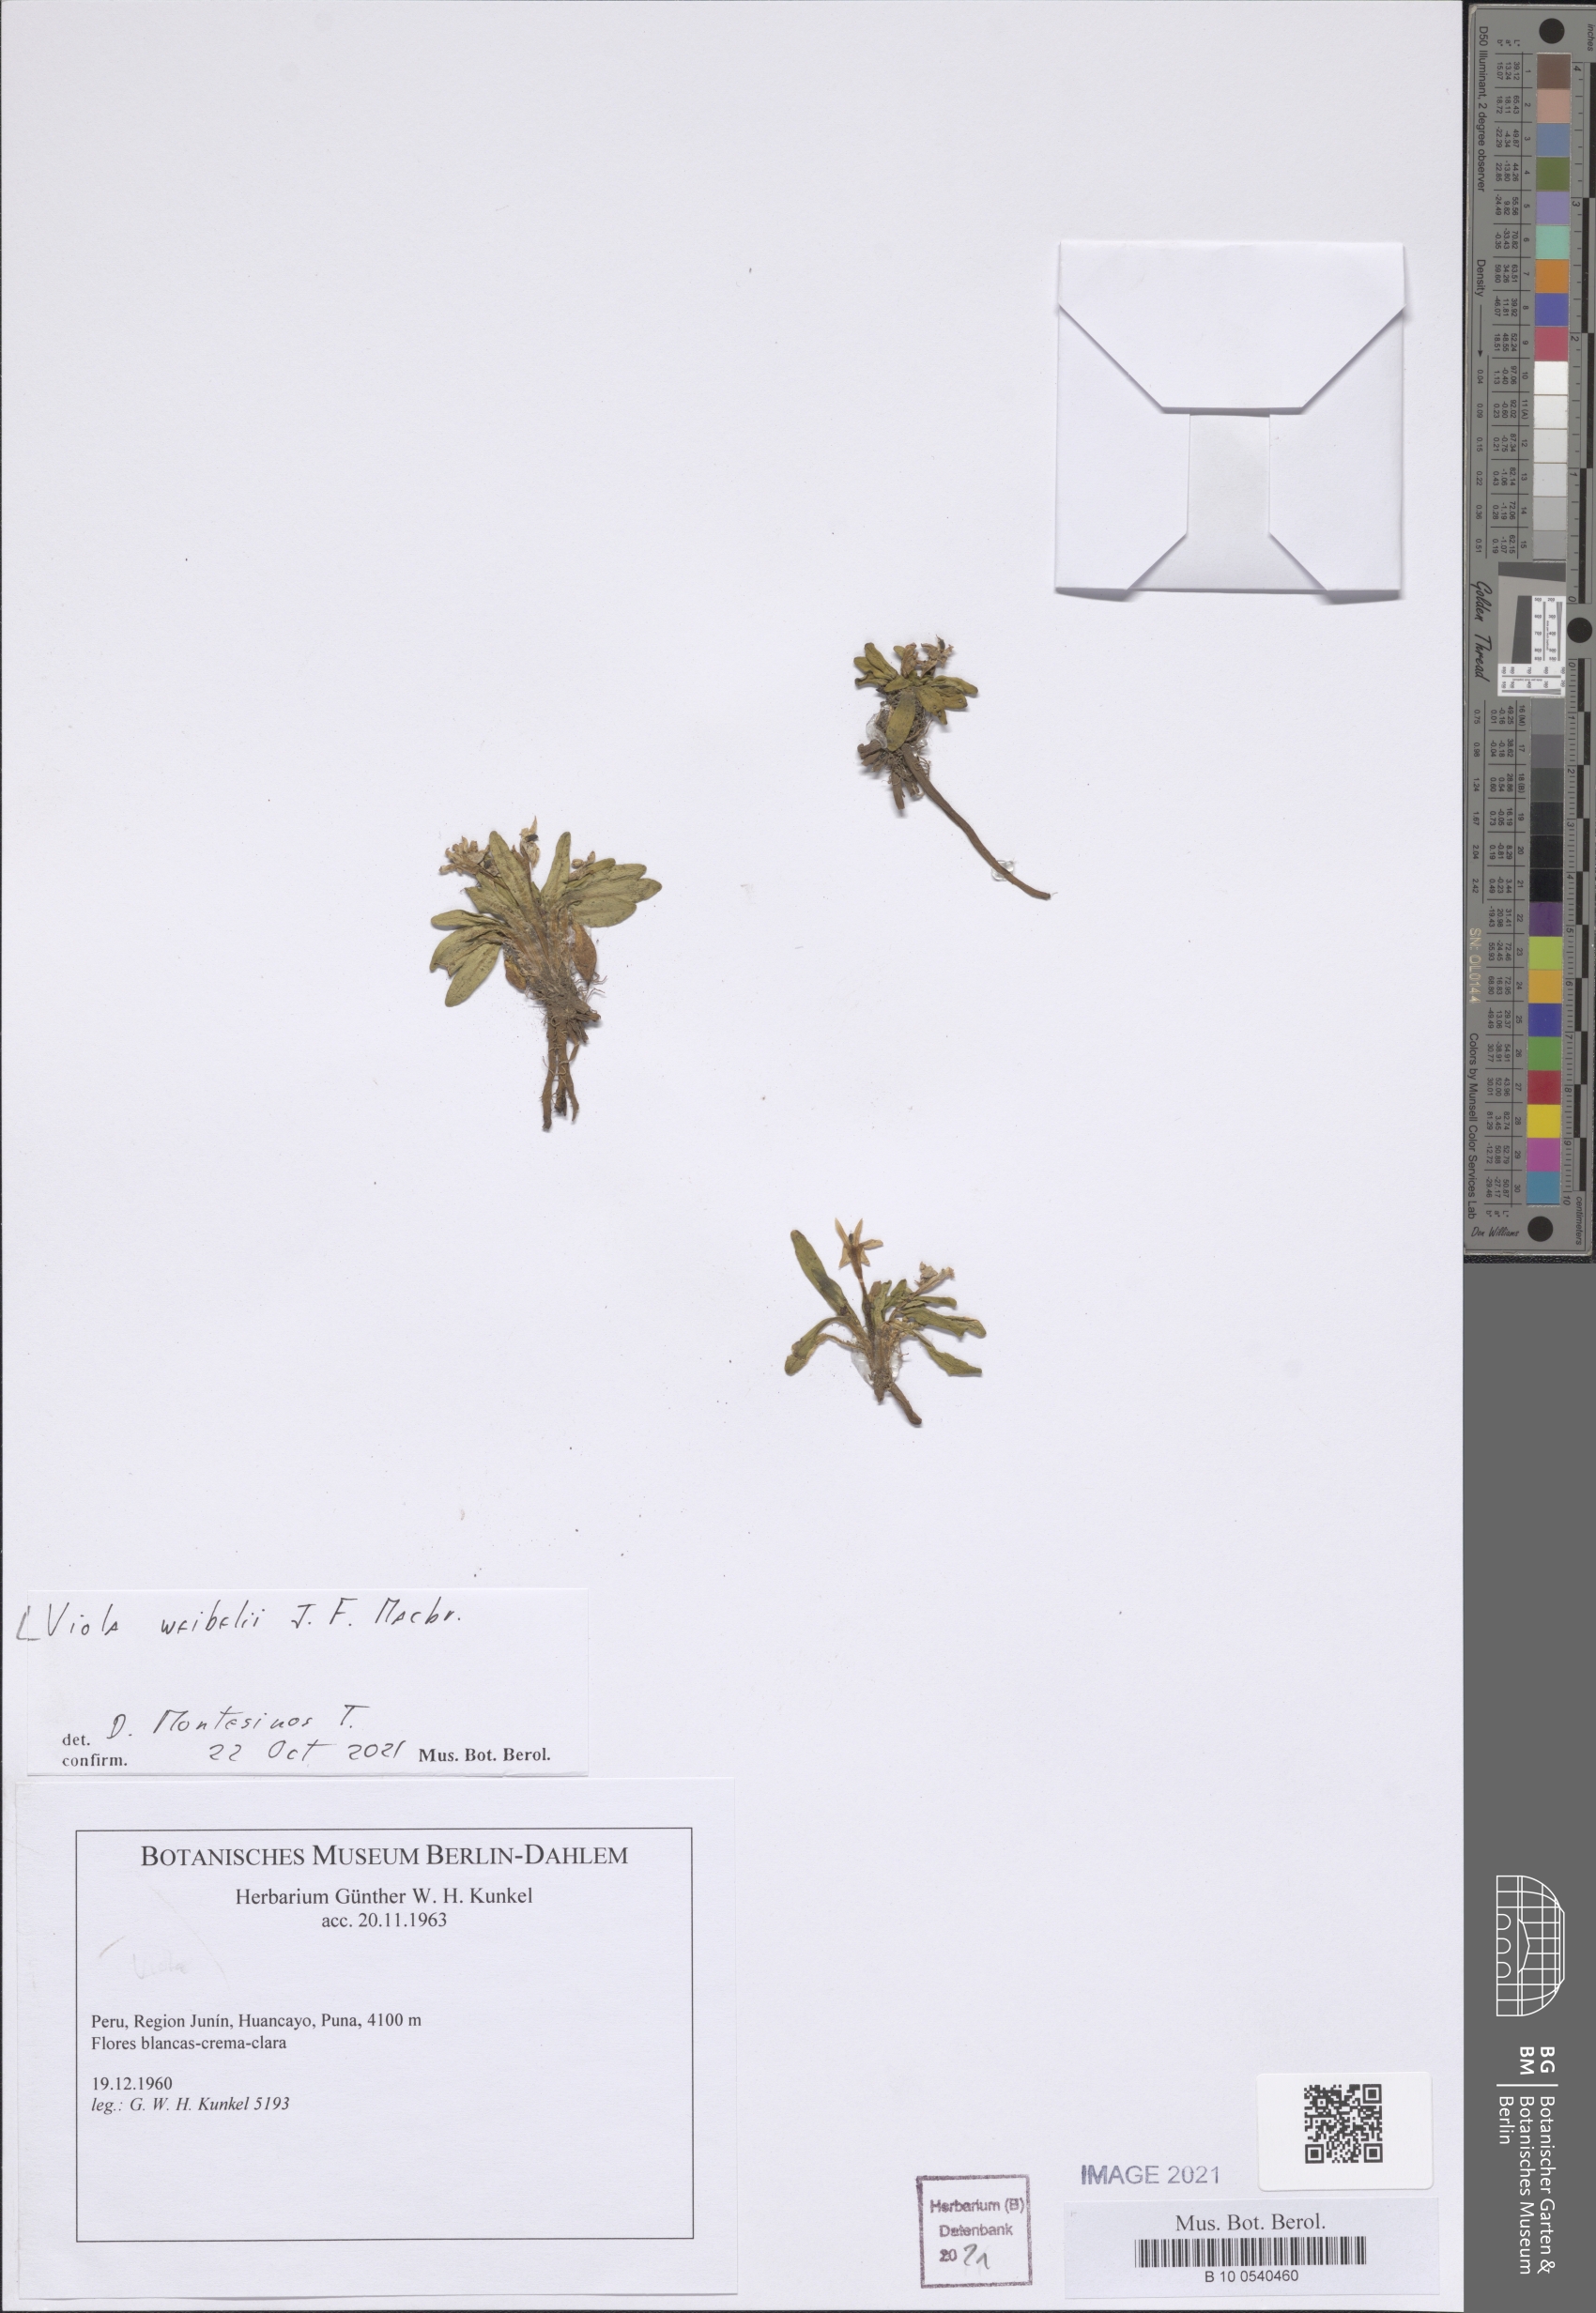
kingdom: Plantae
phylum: Tracheophyta
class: Magnoliopsida
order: Malpighiales
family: Violaceae
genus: Viola
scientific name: Viola weibelii
